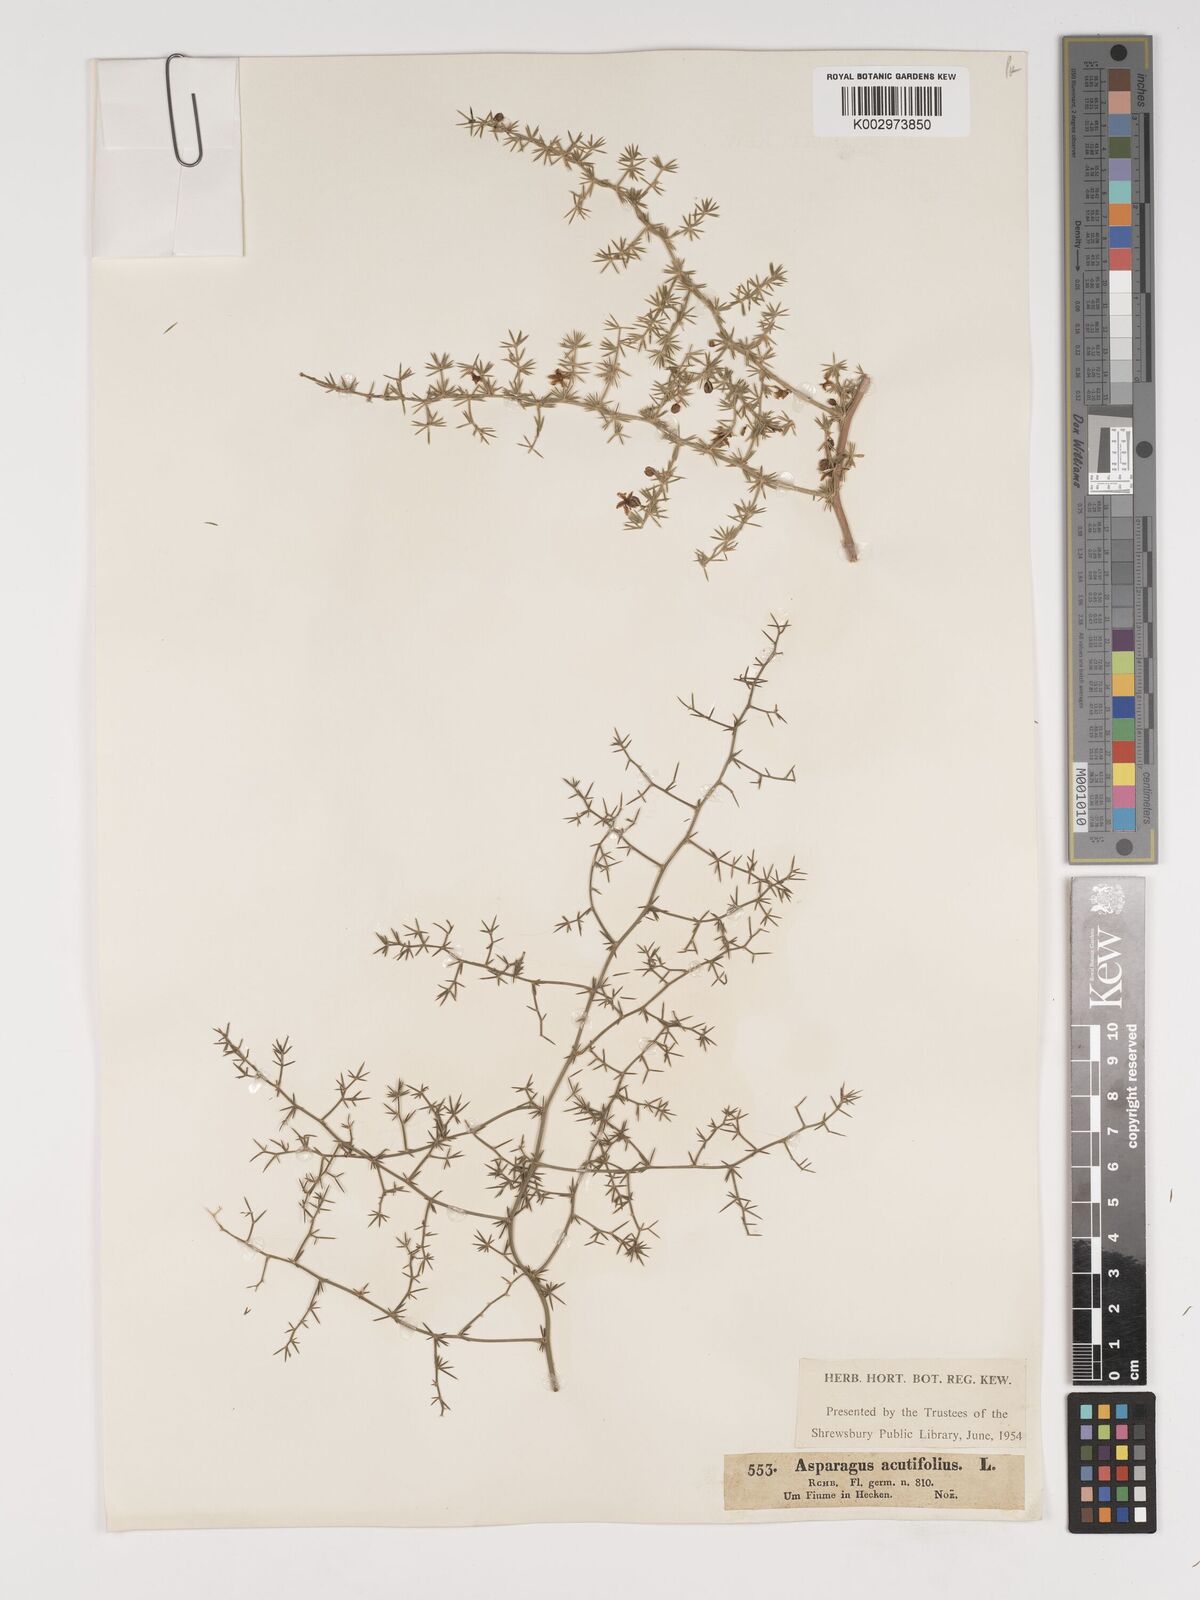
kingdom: Plantae
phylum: Tracheophyta
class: Liliopsida
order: Asparagales
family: Asparagaceae
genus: Asparagus
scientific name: Asparagus acutifolius
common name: Wild asparagus
